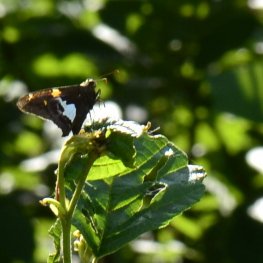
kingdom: Animalia
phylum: Arthropoda
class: Insecta
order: Lepidoptera
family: Hesperiidae
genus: Epargyreus
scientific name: Epargyreus clarus
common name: Silver-spotted Skipper
